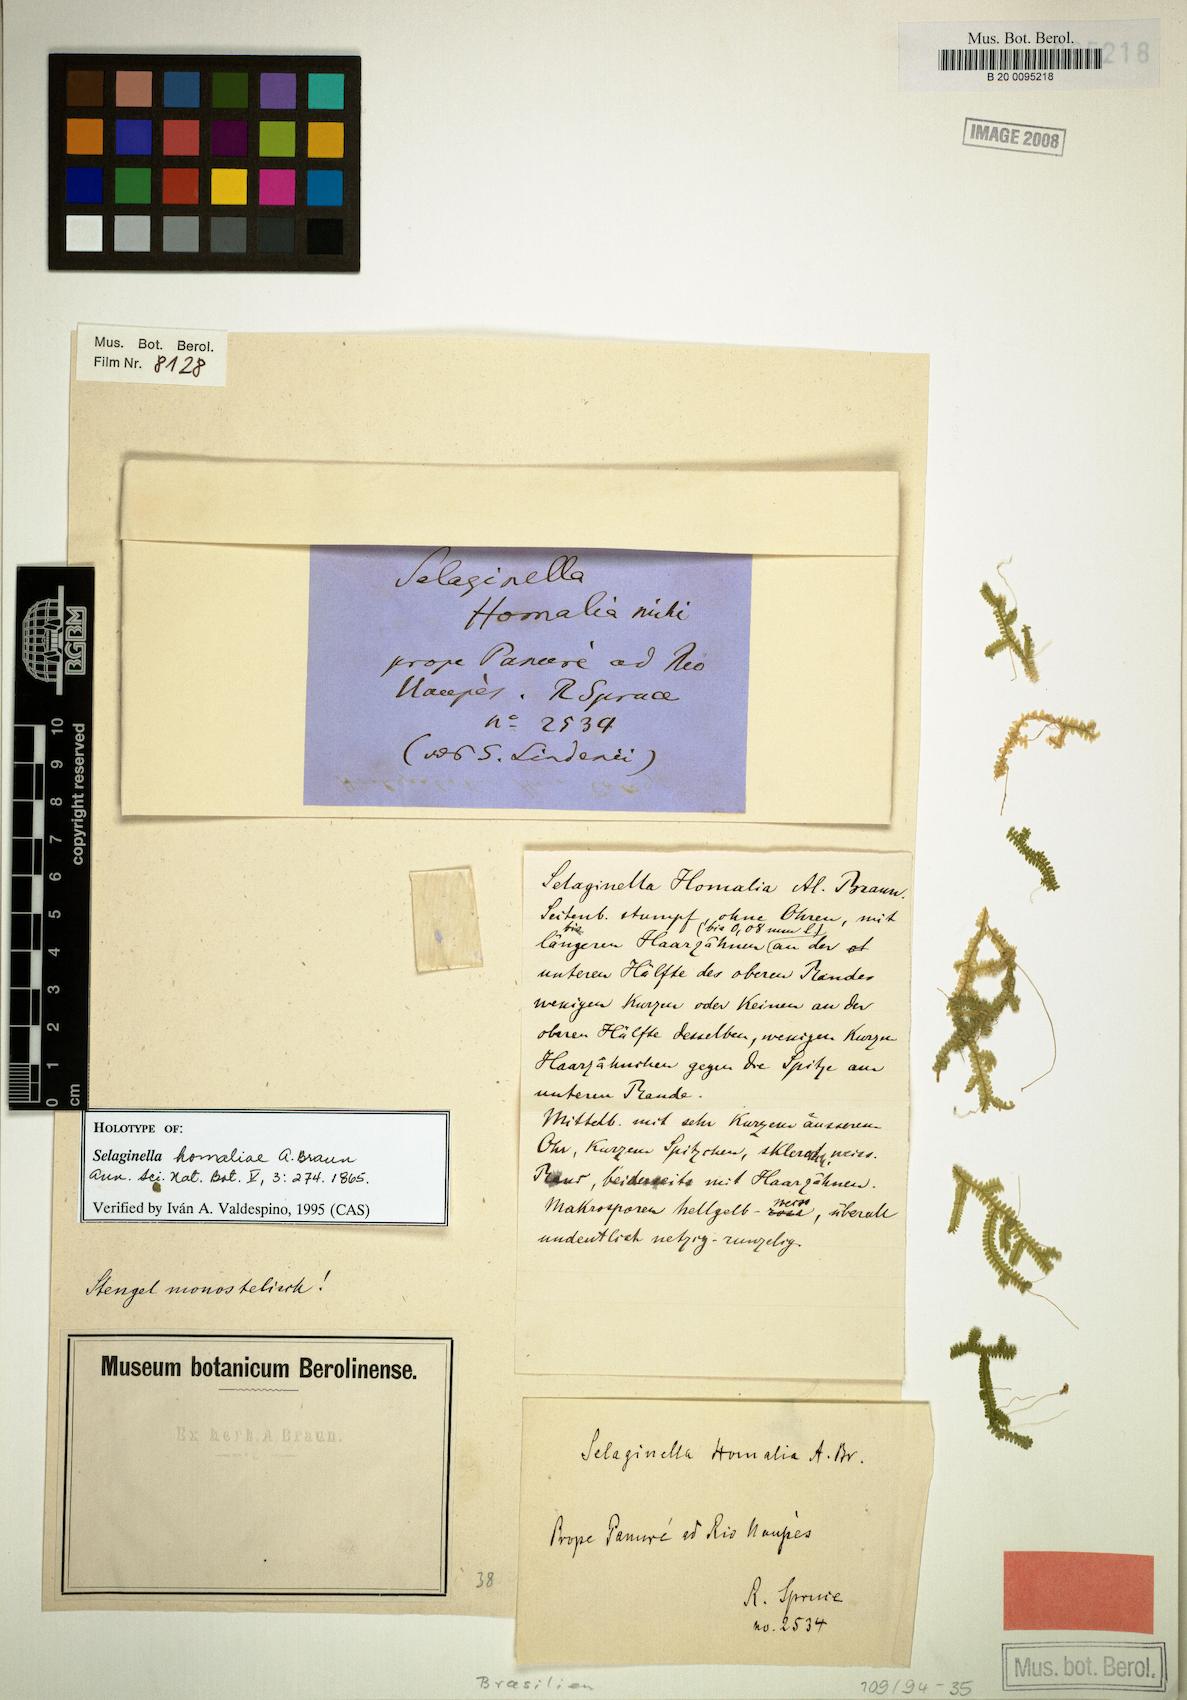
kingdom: Plantae
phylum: Tracheophyta
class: Lycopodiopsida
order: Selaginellales
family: Selaginellaceae
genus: Selaginella
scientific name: Selaginella homaliae
